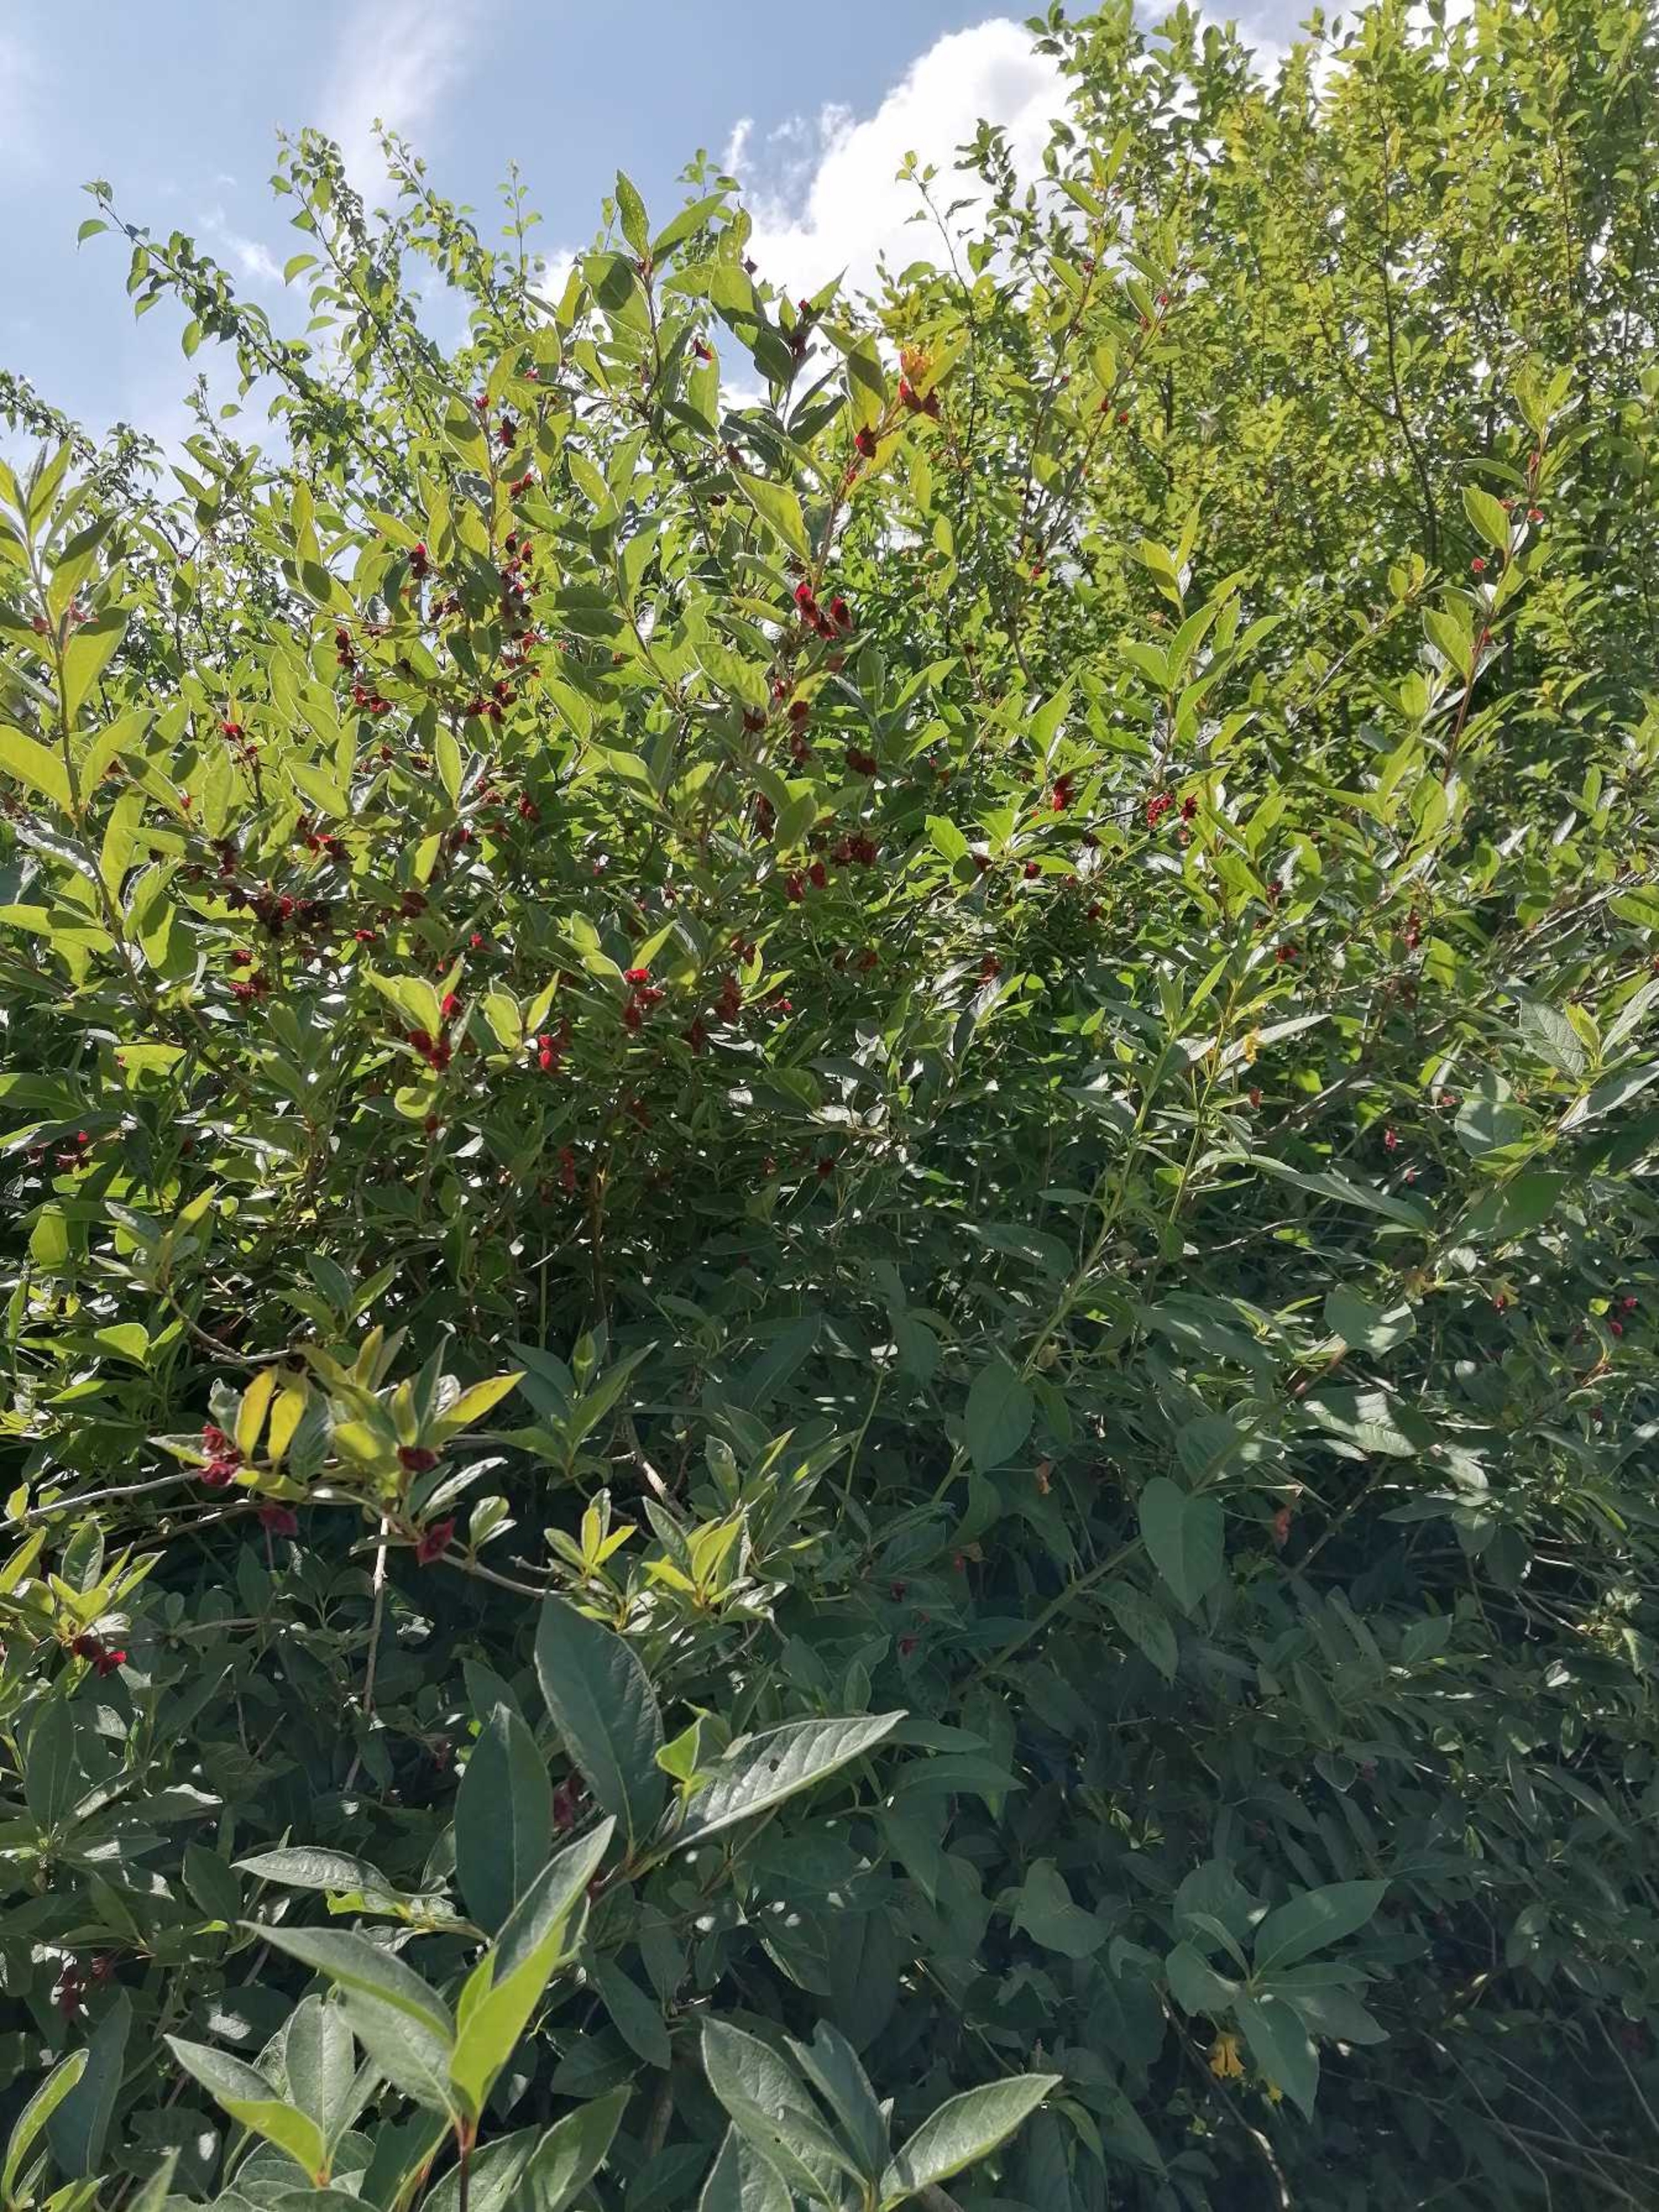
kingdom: Plantae
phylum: Tracheophyta
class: Magnoliopsida
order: Dipsacales
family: Caprifoliaceae
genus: Lonicera
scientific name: Lonicera involucrata
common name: Svøb-gedeblad
